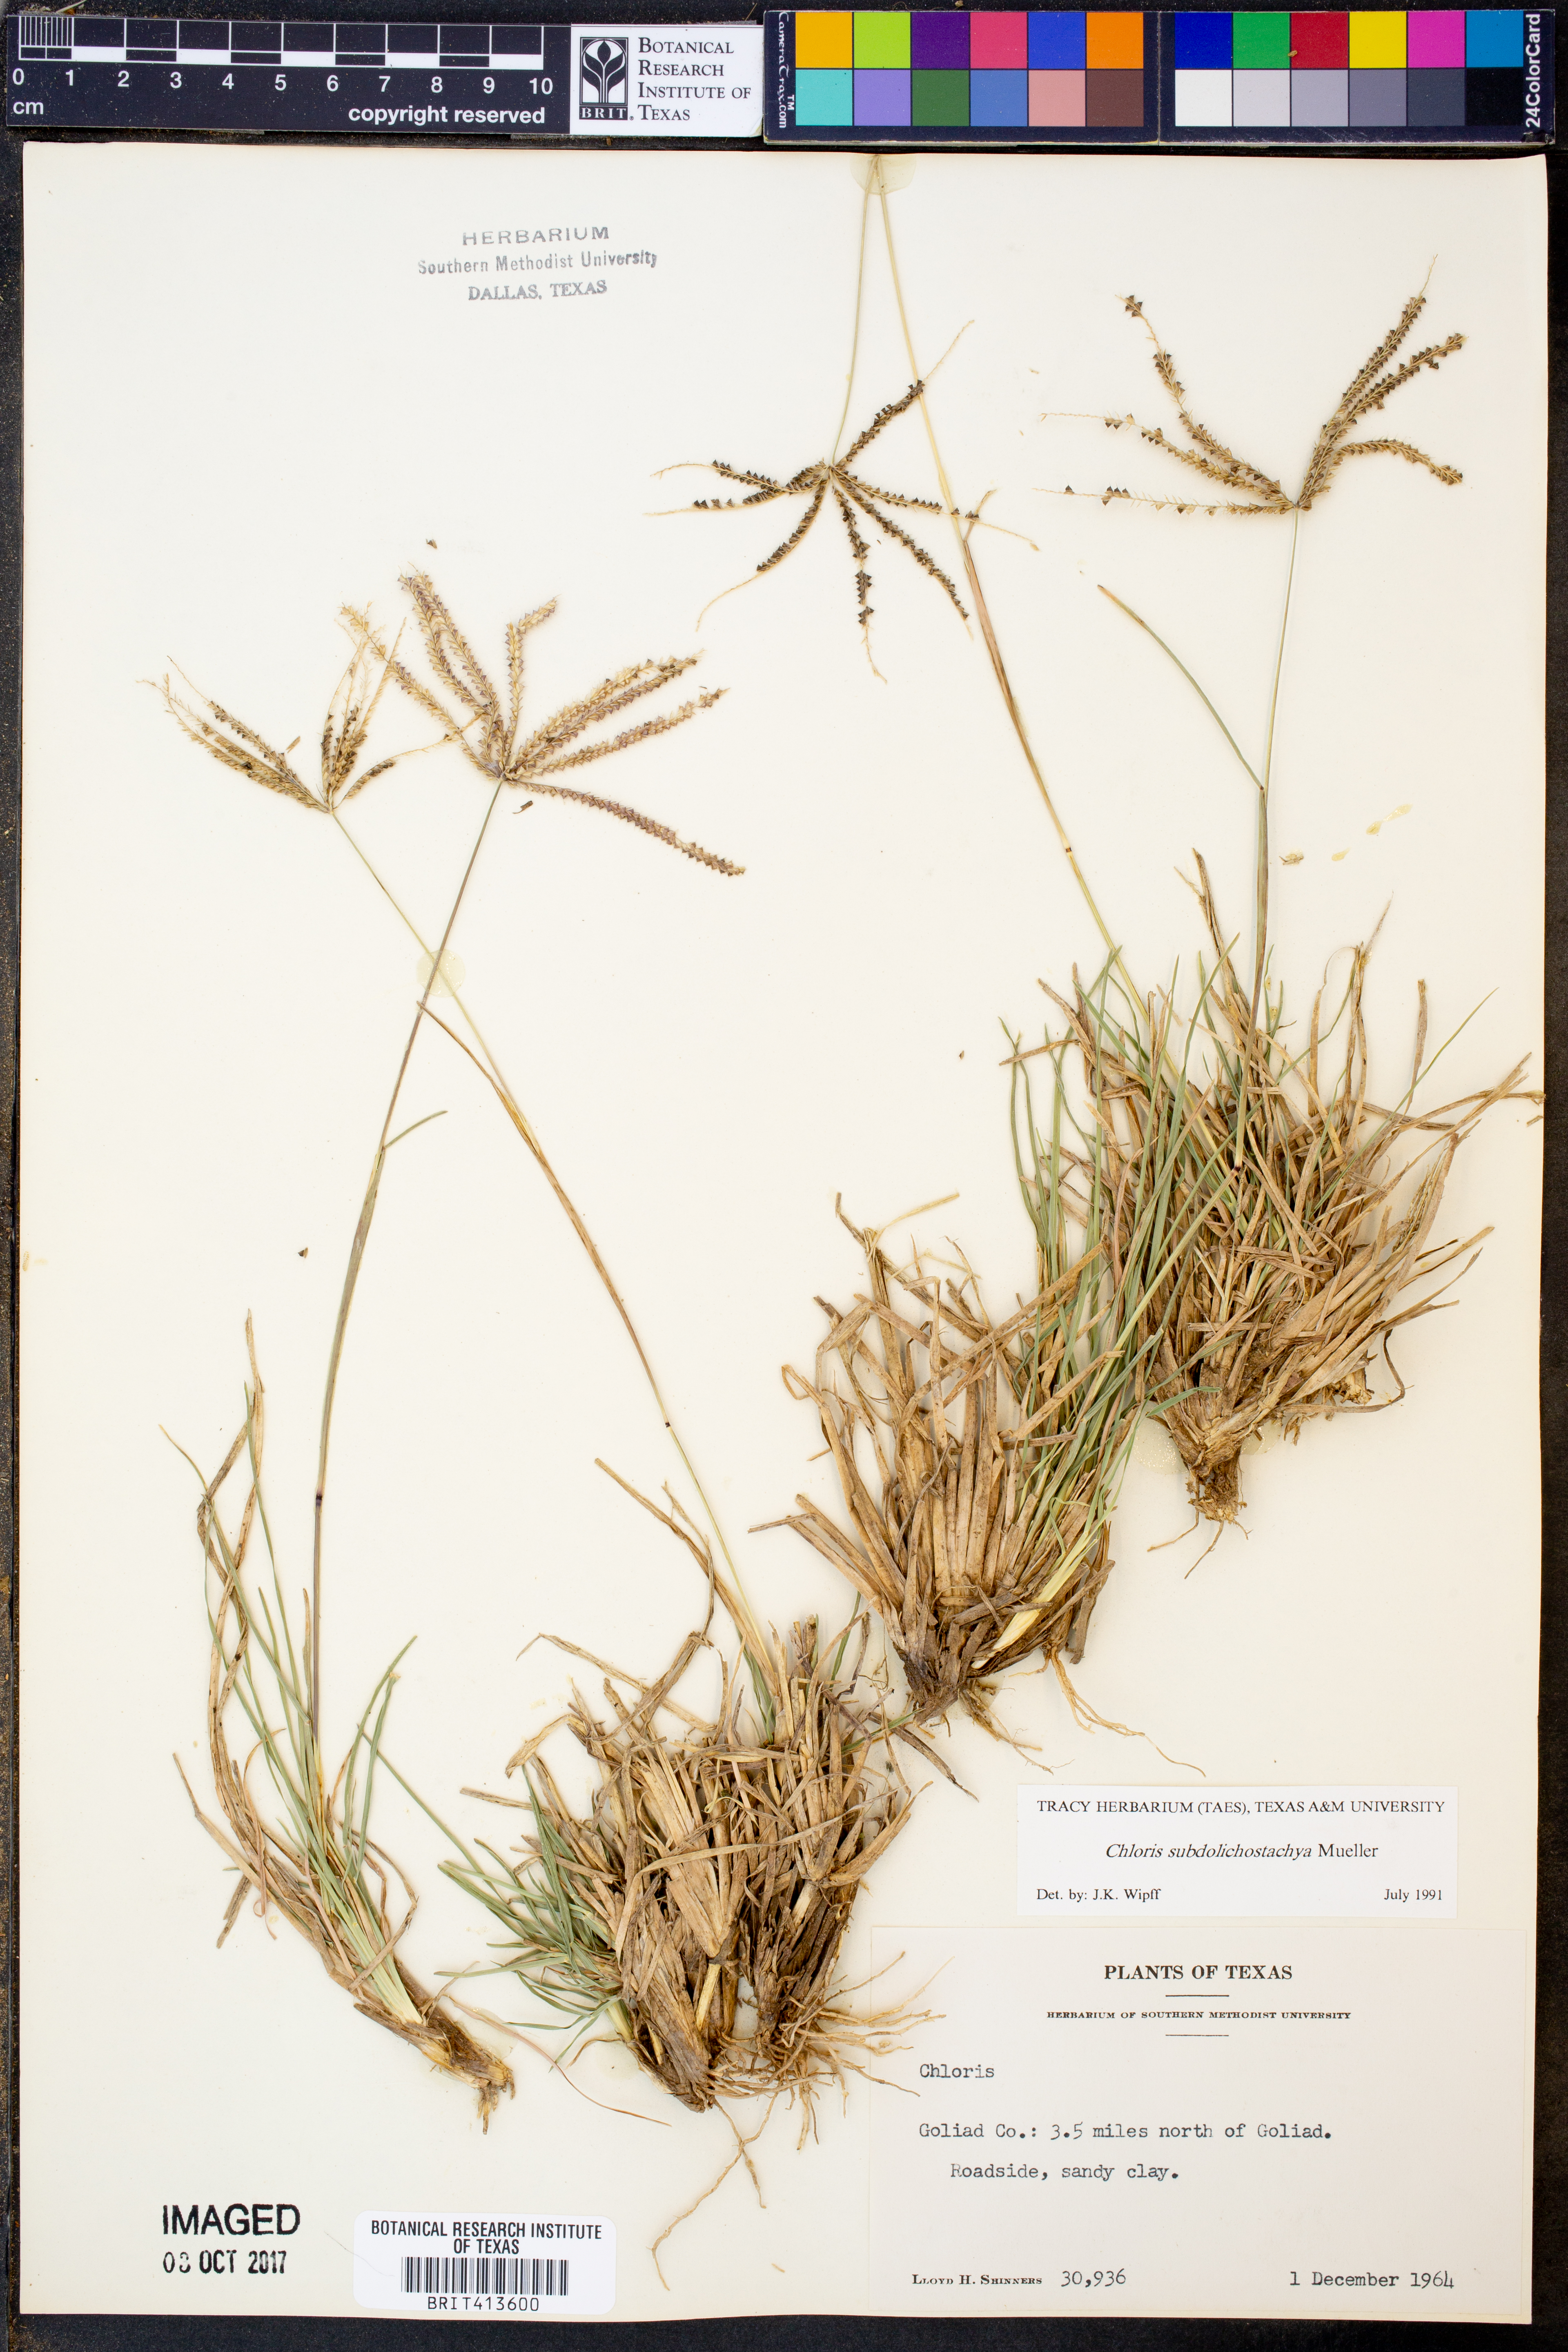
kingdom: Plantae
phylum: Tracheophyta
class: Liliopsida
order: Poales
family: Poaceae
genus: Chloris
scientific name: Chloris subdolichostachya
